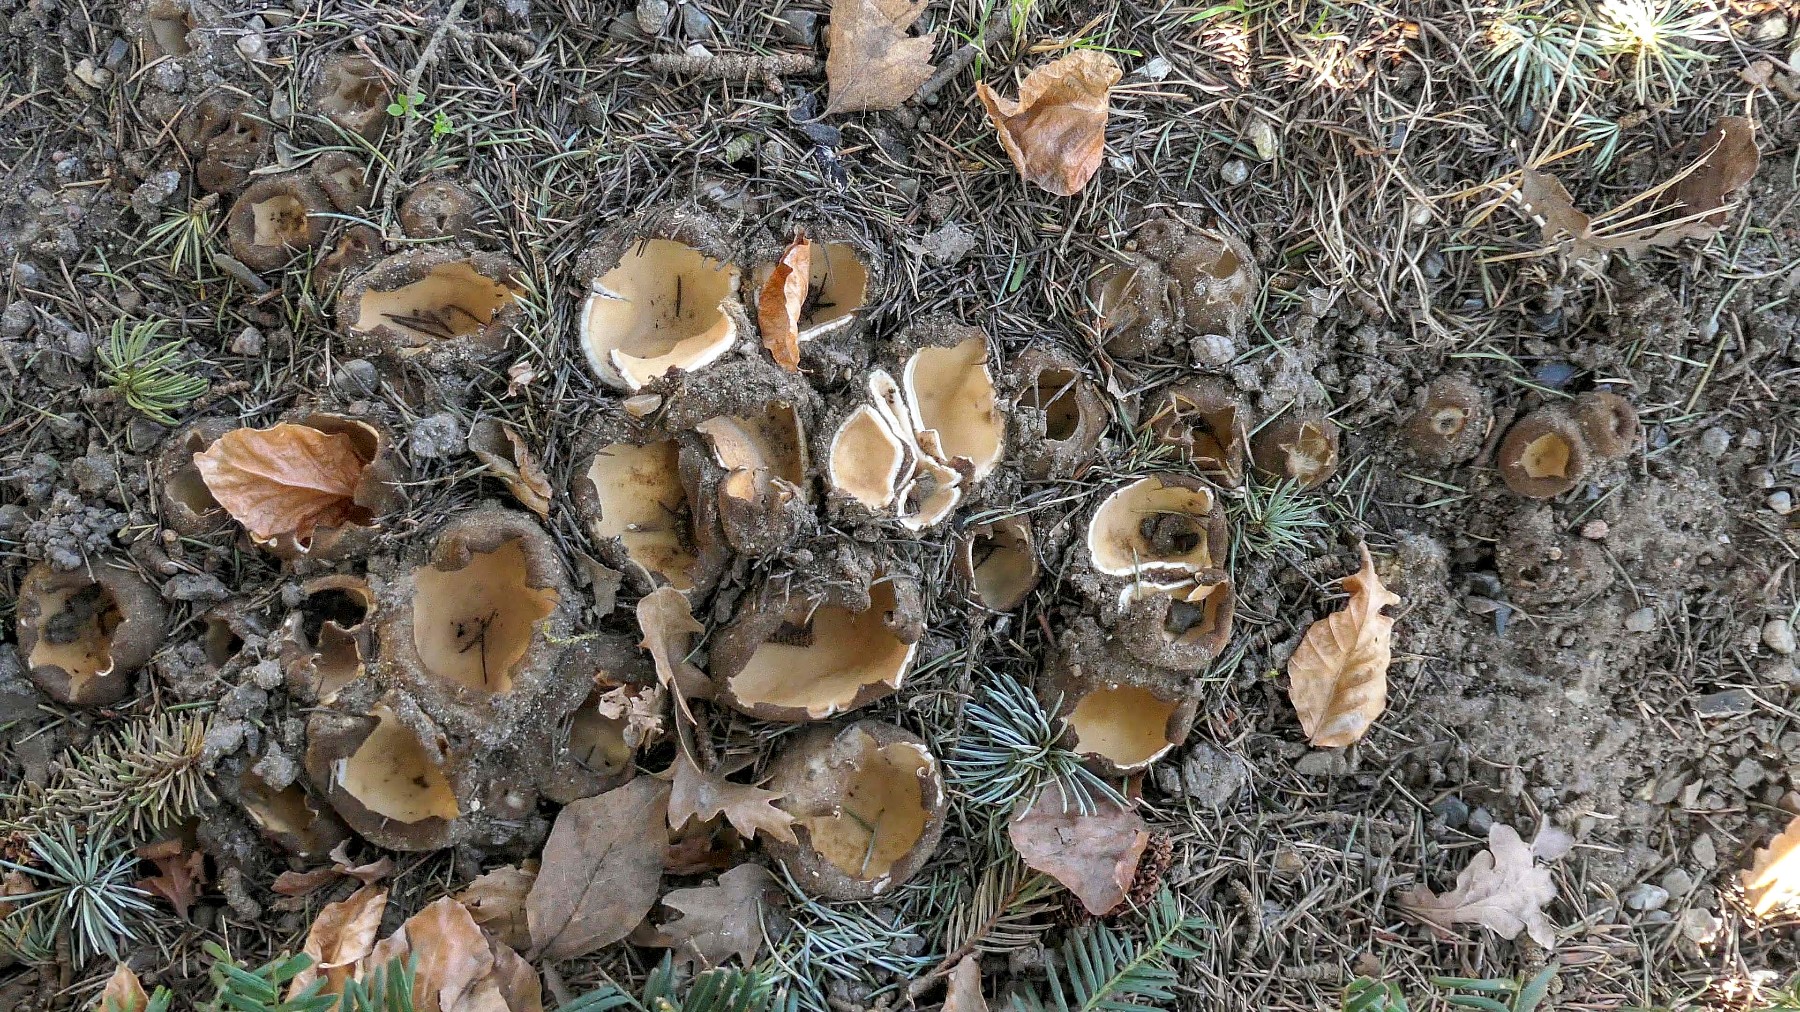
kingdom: Fungi
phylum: Ascomycota
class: Pezizomycetes
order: Pezizales
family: Pyronemataceae
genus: Geopora
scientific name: Geopora sumneriana
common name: vår-jordbæger
